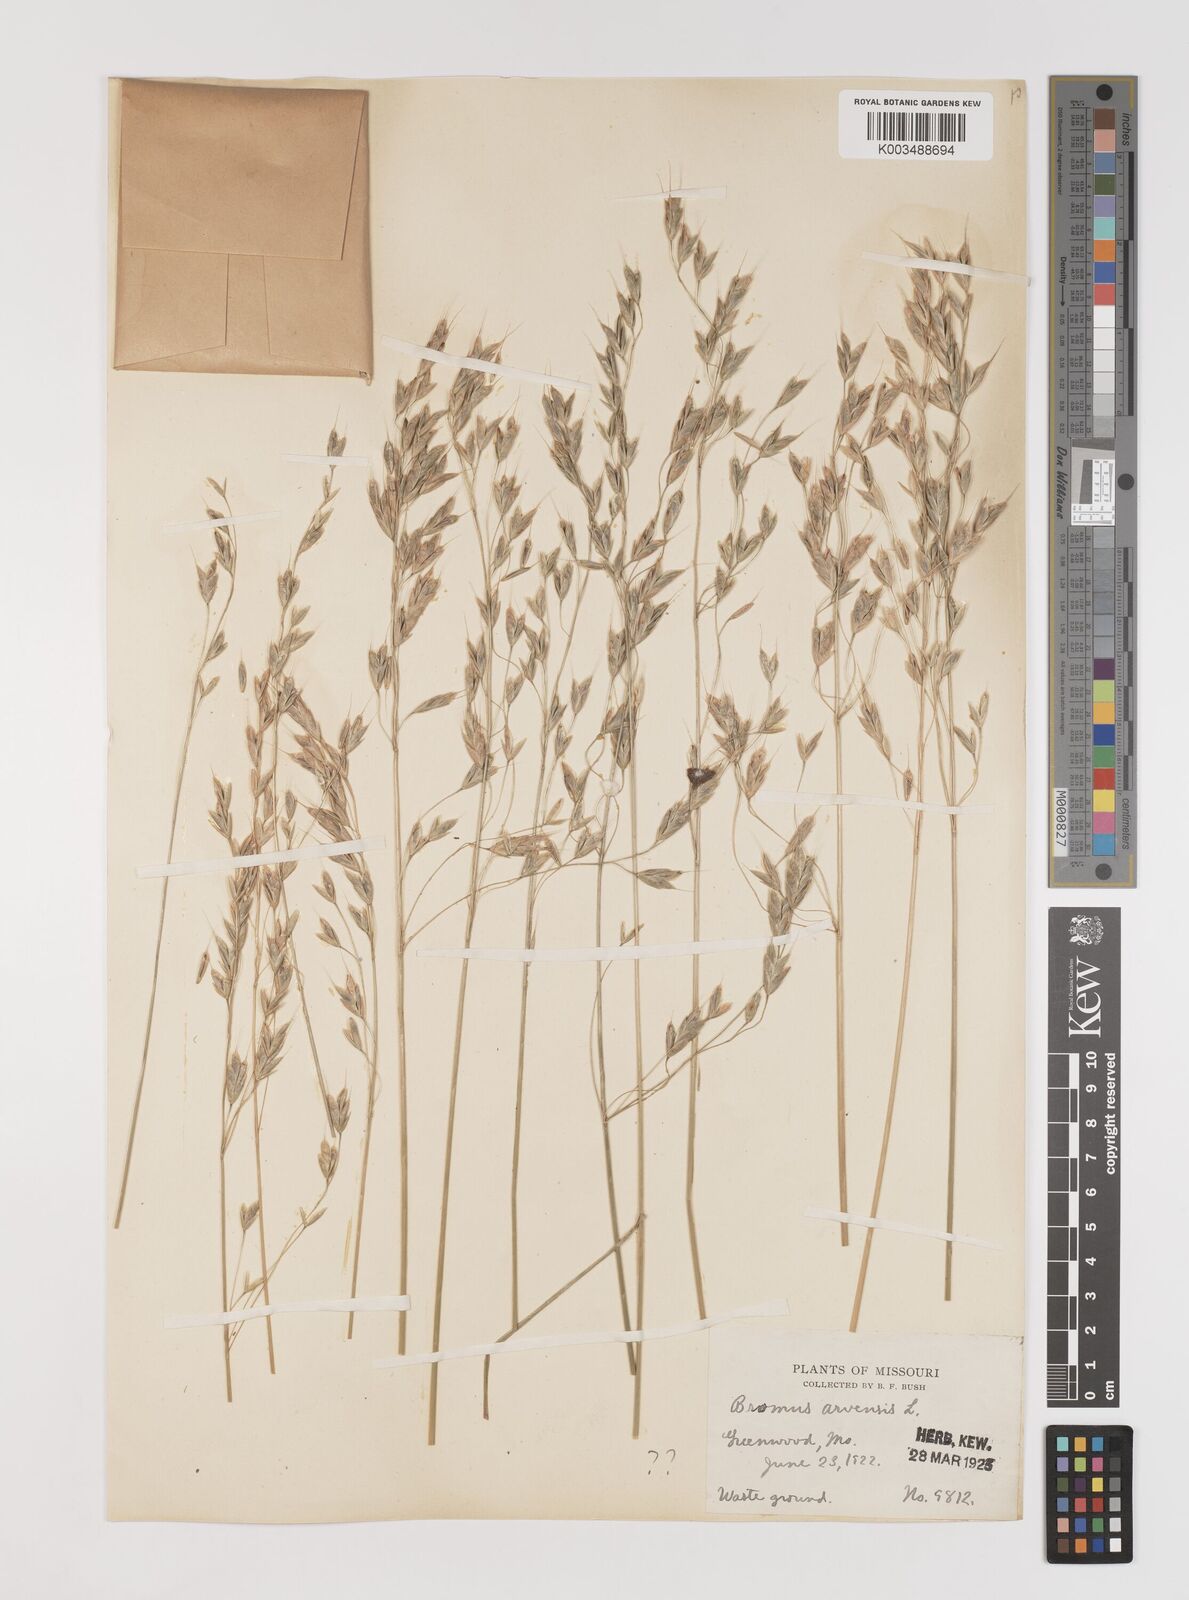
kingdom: Plantae
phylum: Tracheophyta
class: Liliopsida
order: Poales
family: Poaceae
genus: Bromus
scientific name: Bromus racemosus
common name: Bald brome
